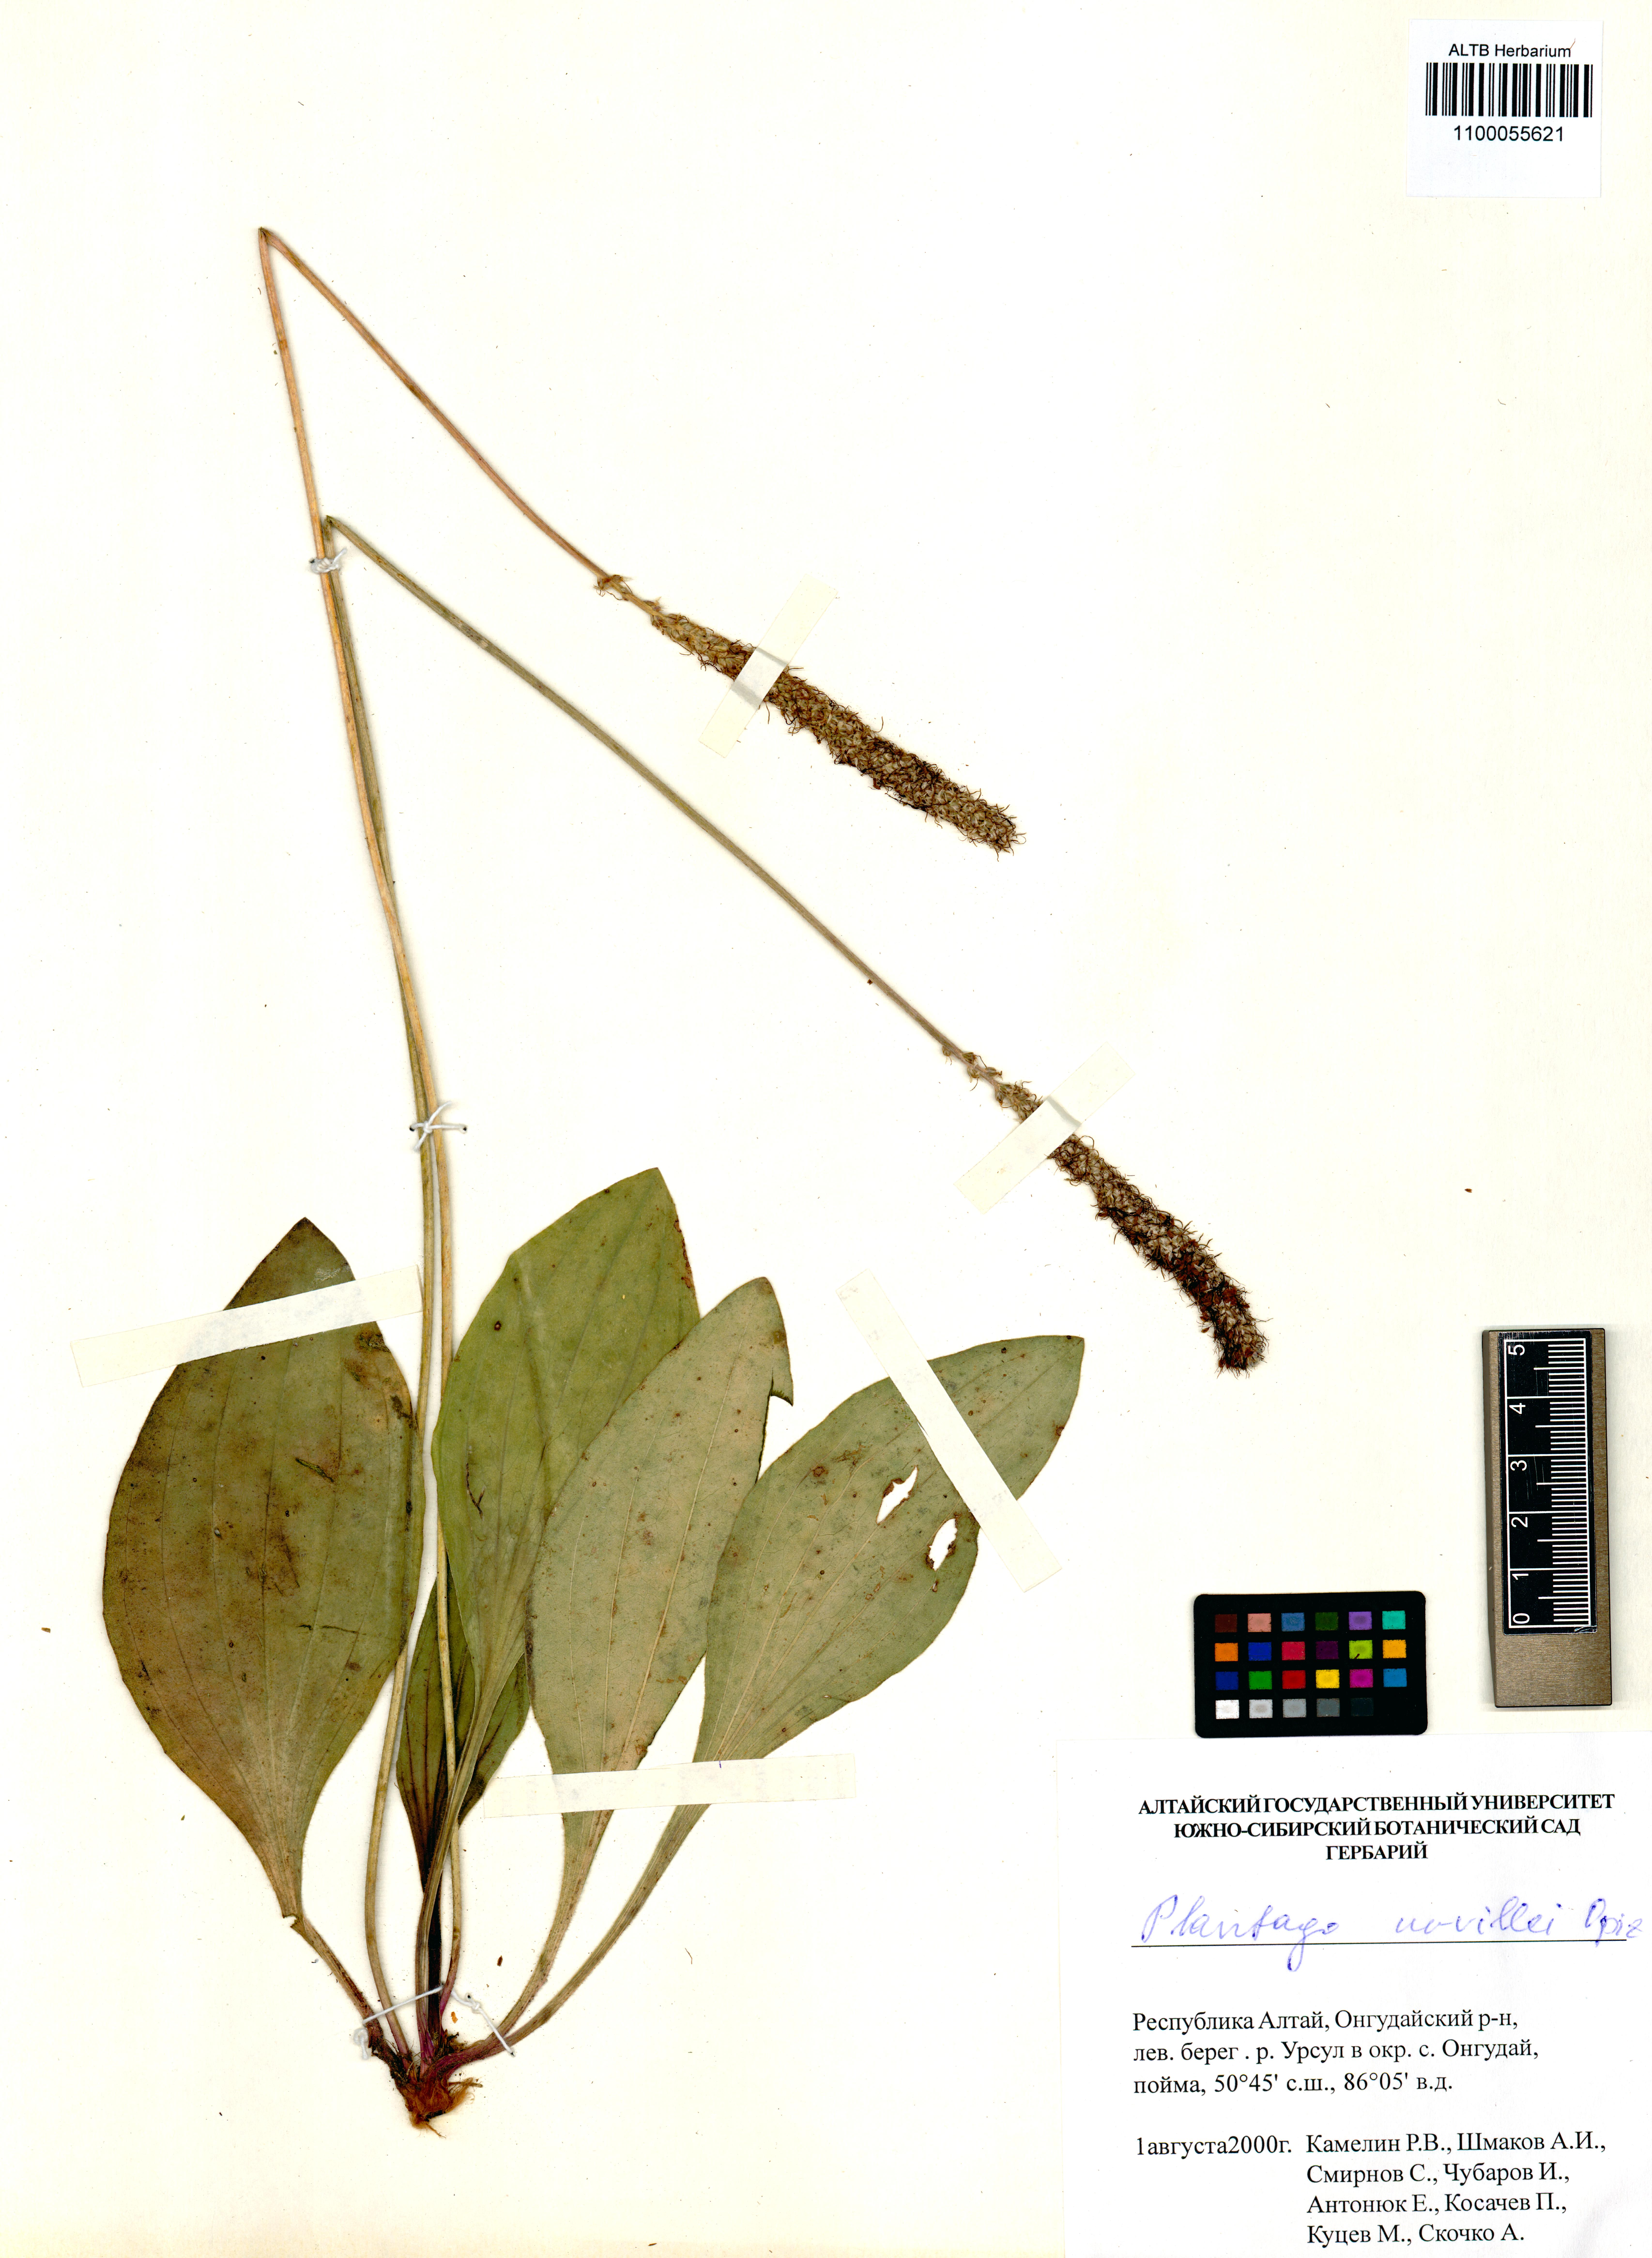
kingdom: Plantae
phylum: Tracheophyta
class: Magnoliopsida
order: Lamiales
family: Plantaginaceae
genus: Plantago
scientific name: Plantago urvillei
